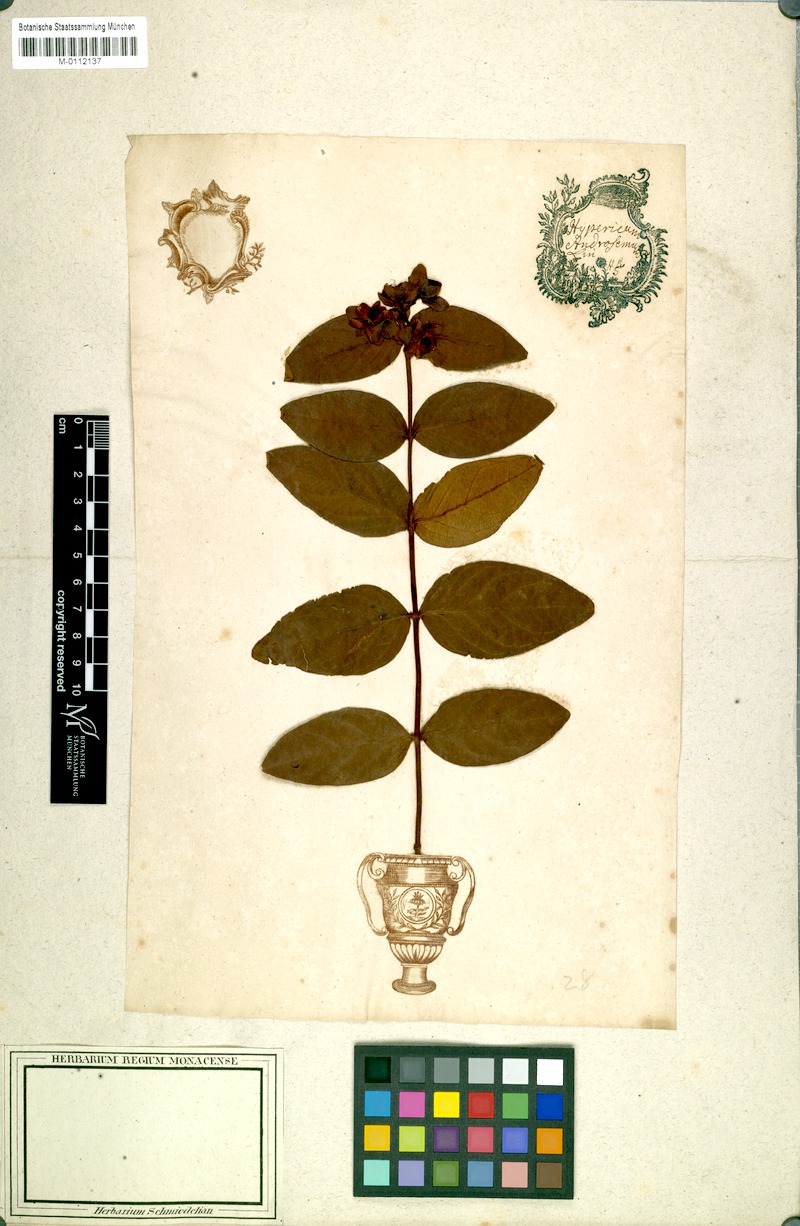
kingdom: Plantae
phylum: Tracheophyta
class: Magnoliopsida
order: Malpighiales
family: Hypericaceae
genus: Hypericum
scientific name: Hypericum androsaemum
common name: Sweet-amber
